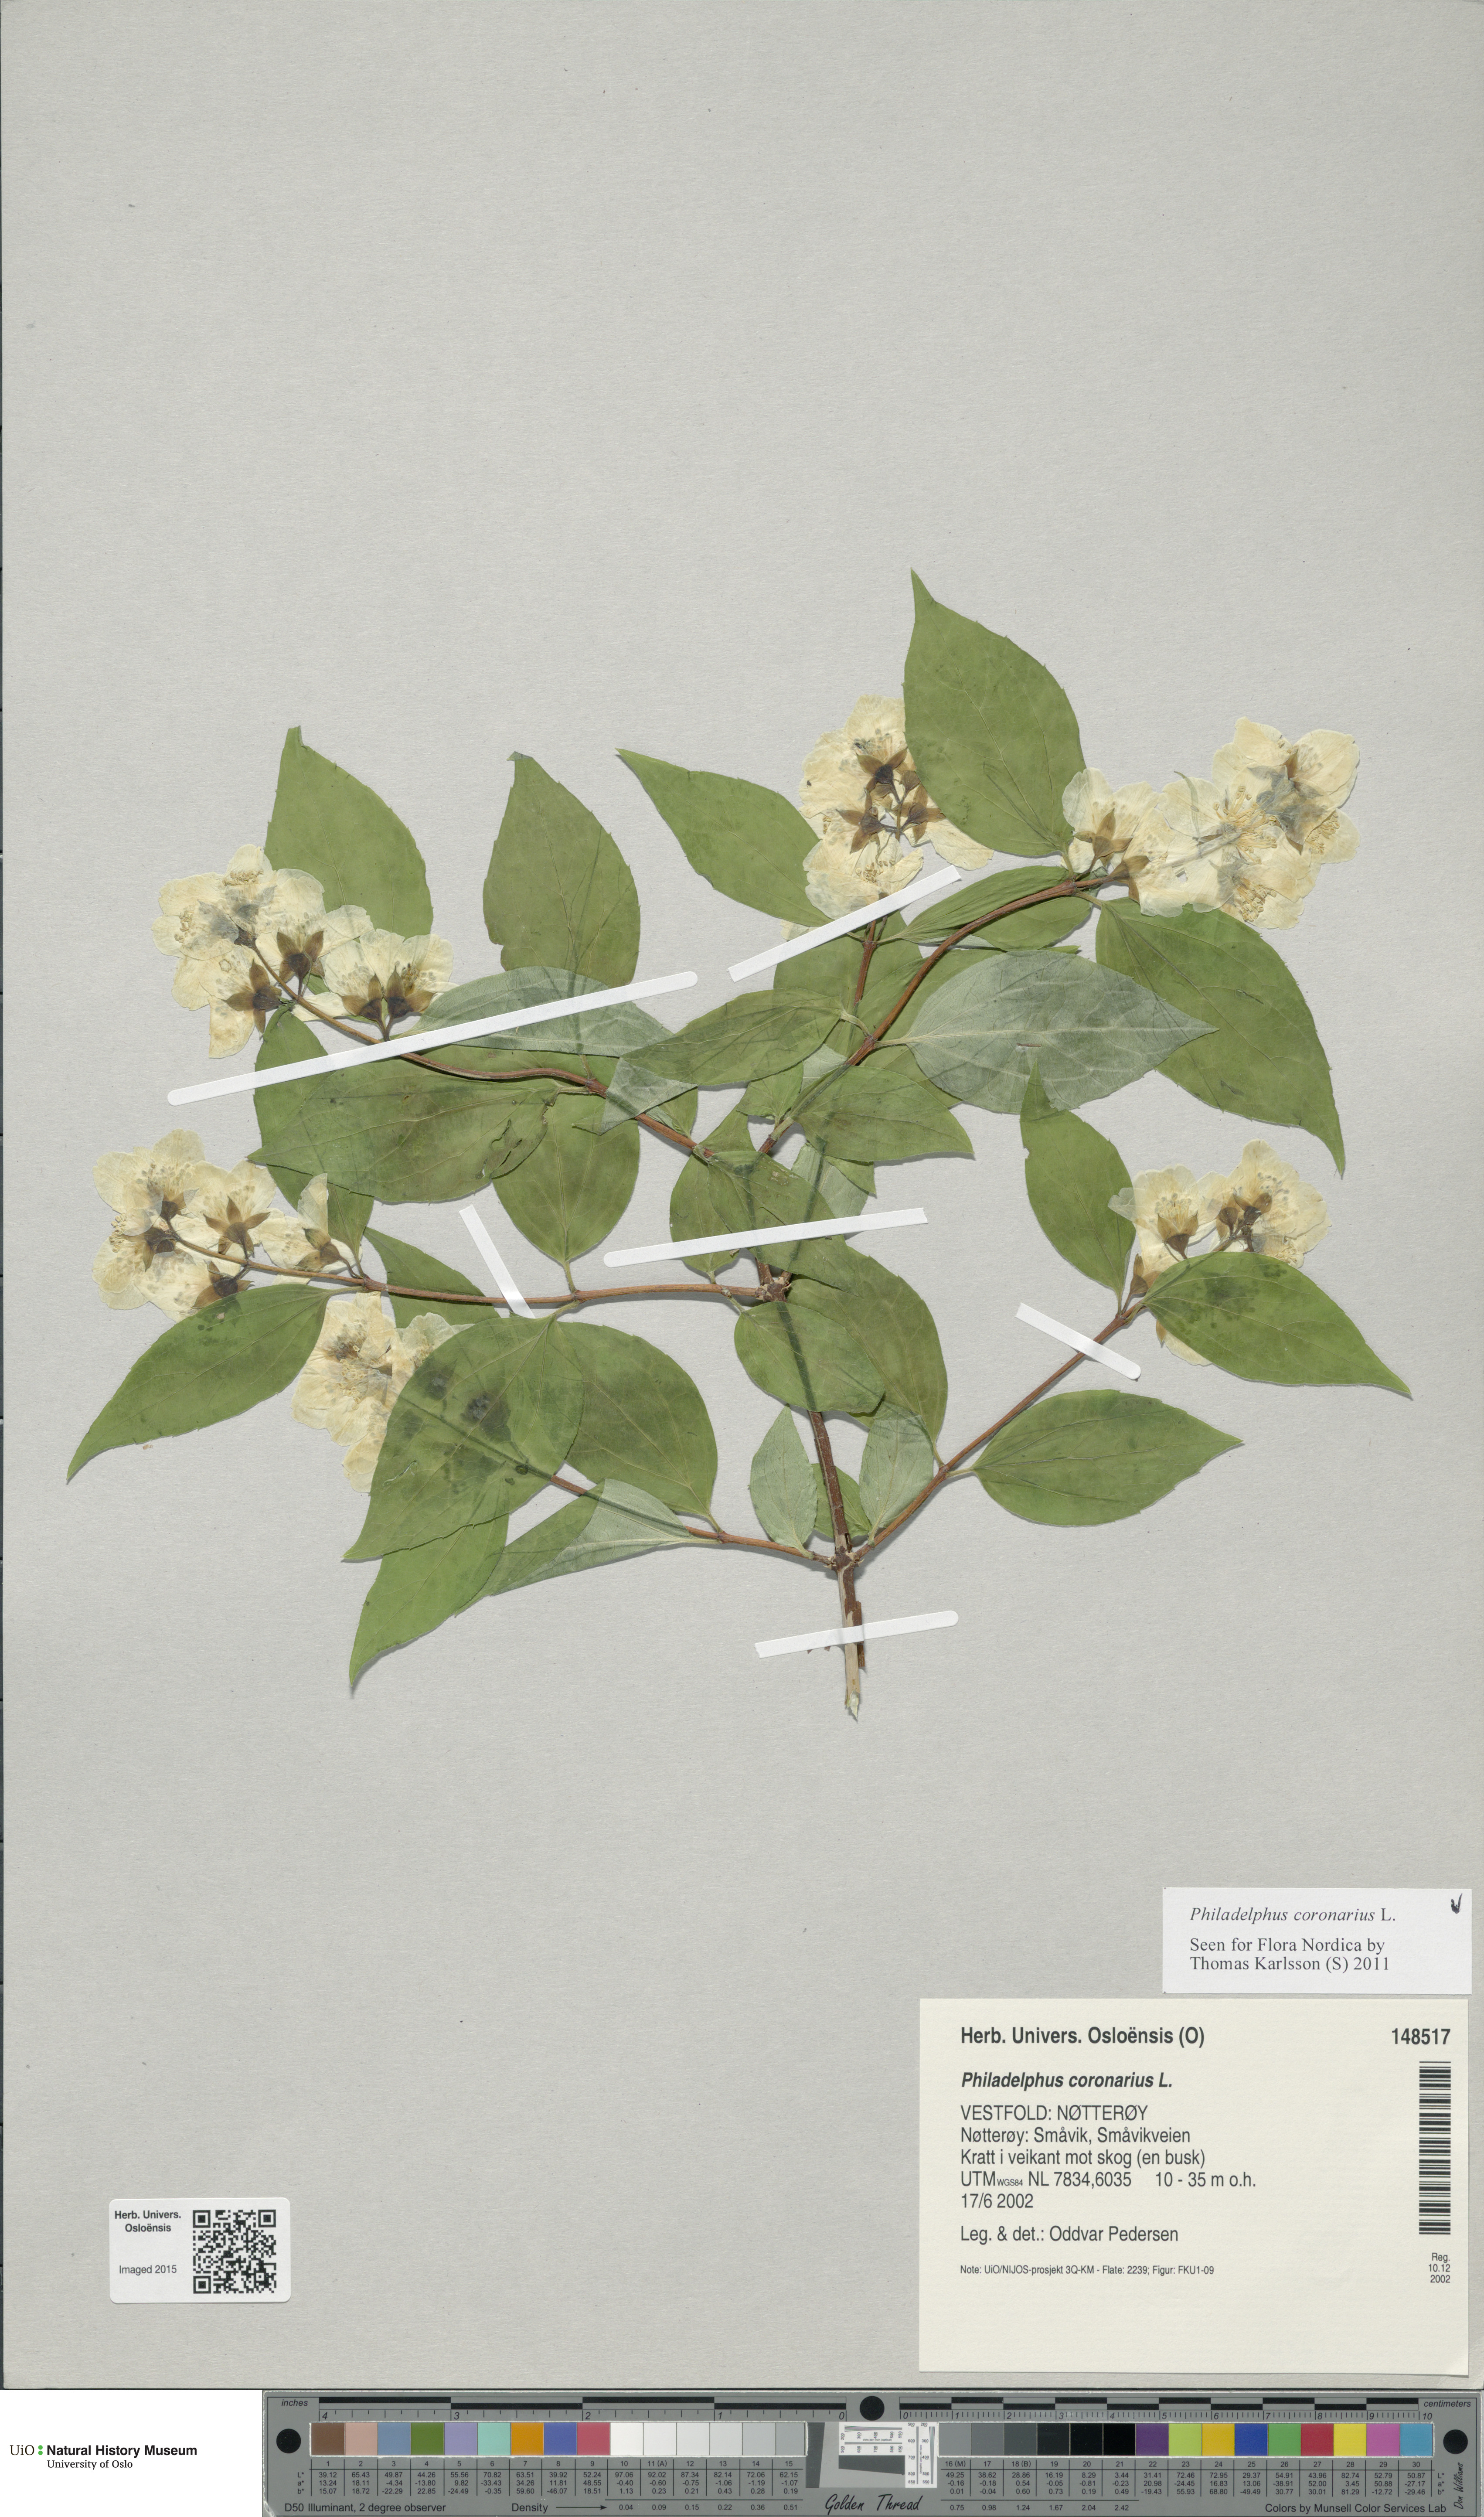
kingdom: Plantae
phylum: Tracheophyta
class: Magnoliopsida
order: Cornales
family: Hydrangeaceae
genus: Philadelphus
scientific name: Philadelphus coronarius
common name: Mock orange
